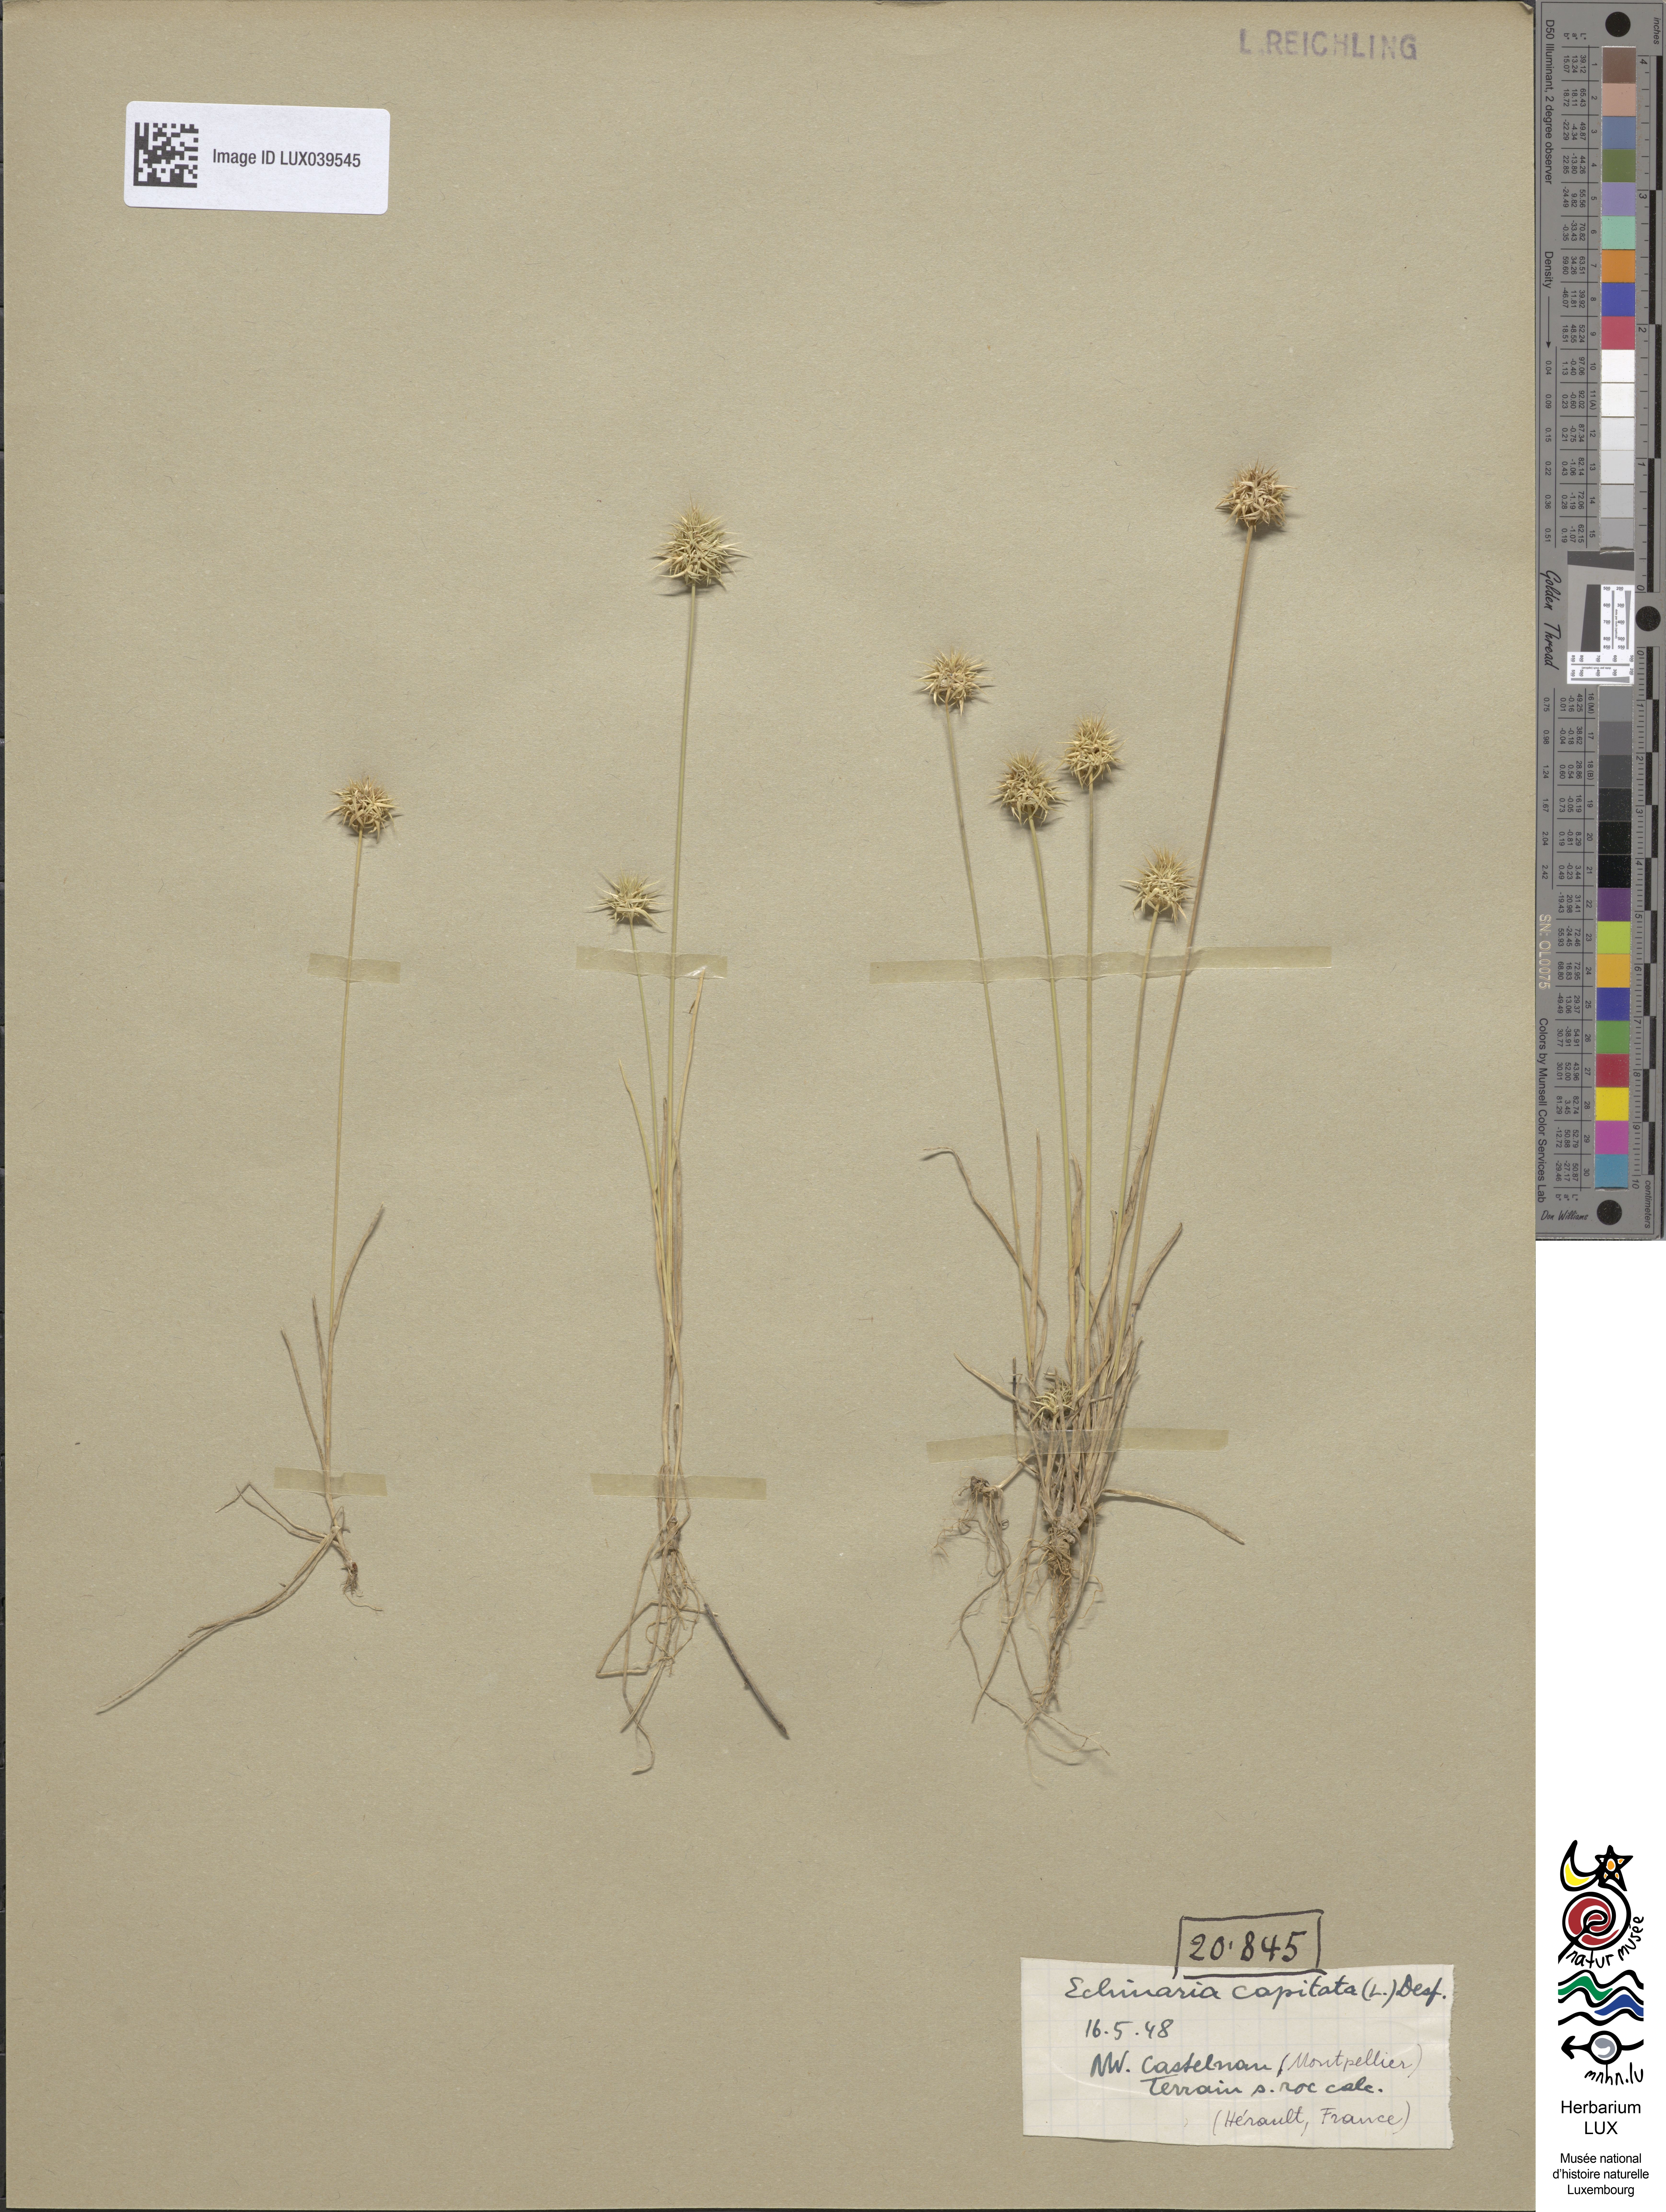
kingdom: Plantae
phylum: Tracheophyta
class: Liliopsida
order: Poales
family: Poaceae
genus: Echinaria
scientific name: Echinaria capitata
